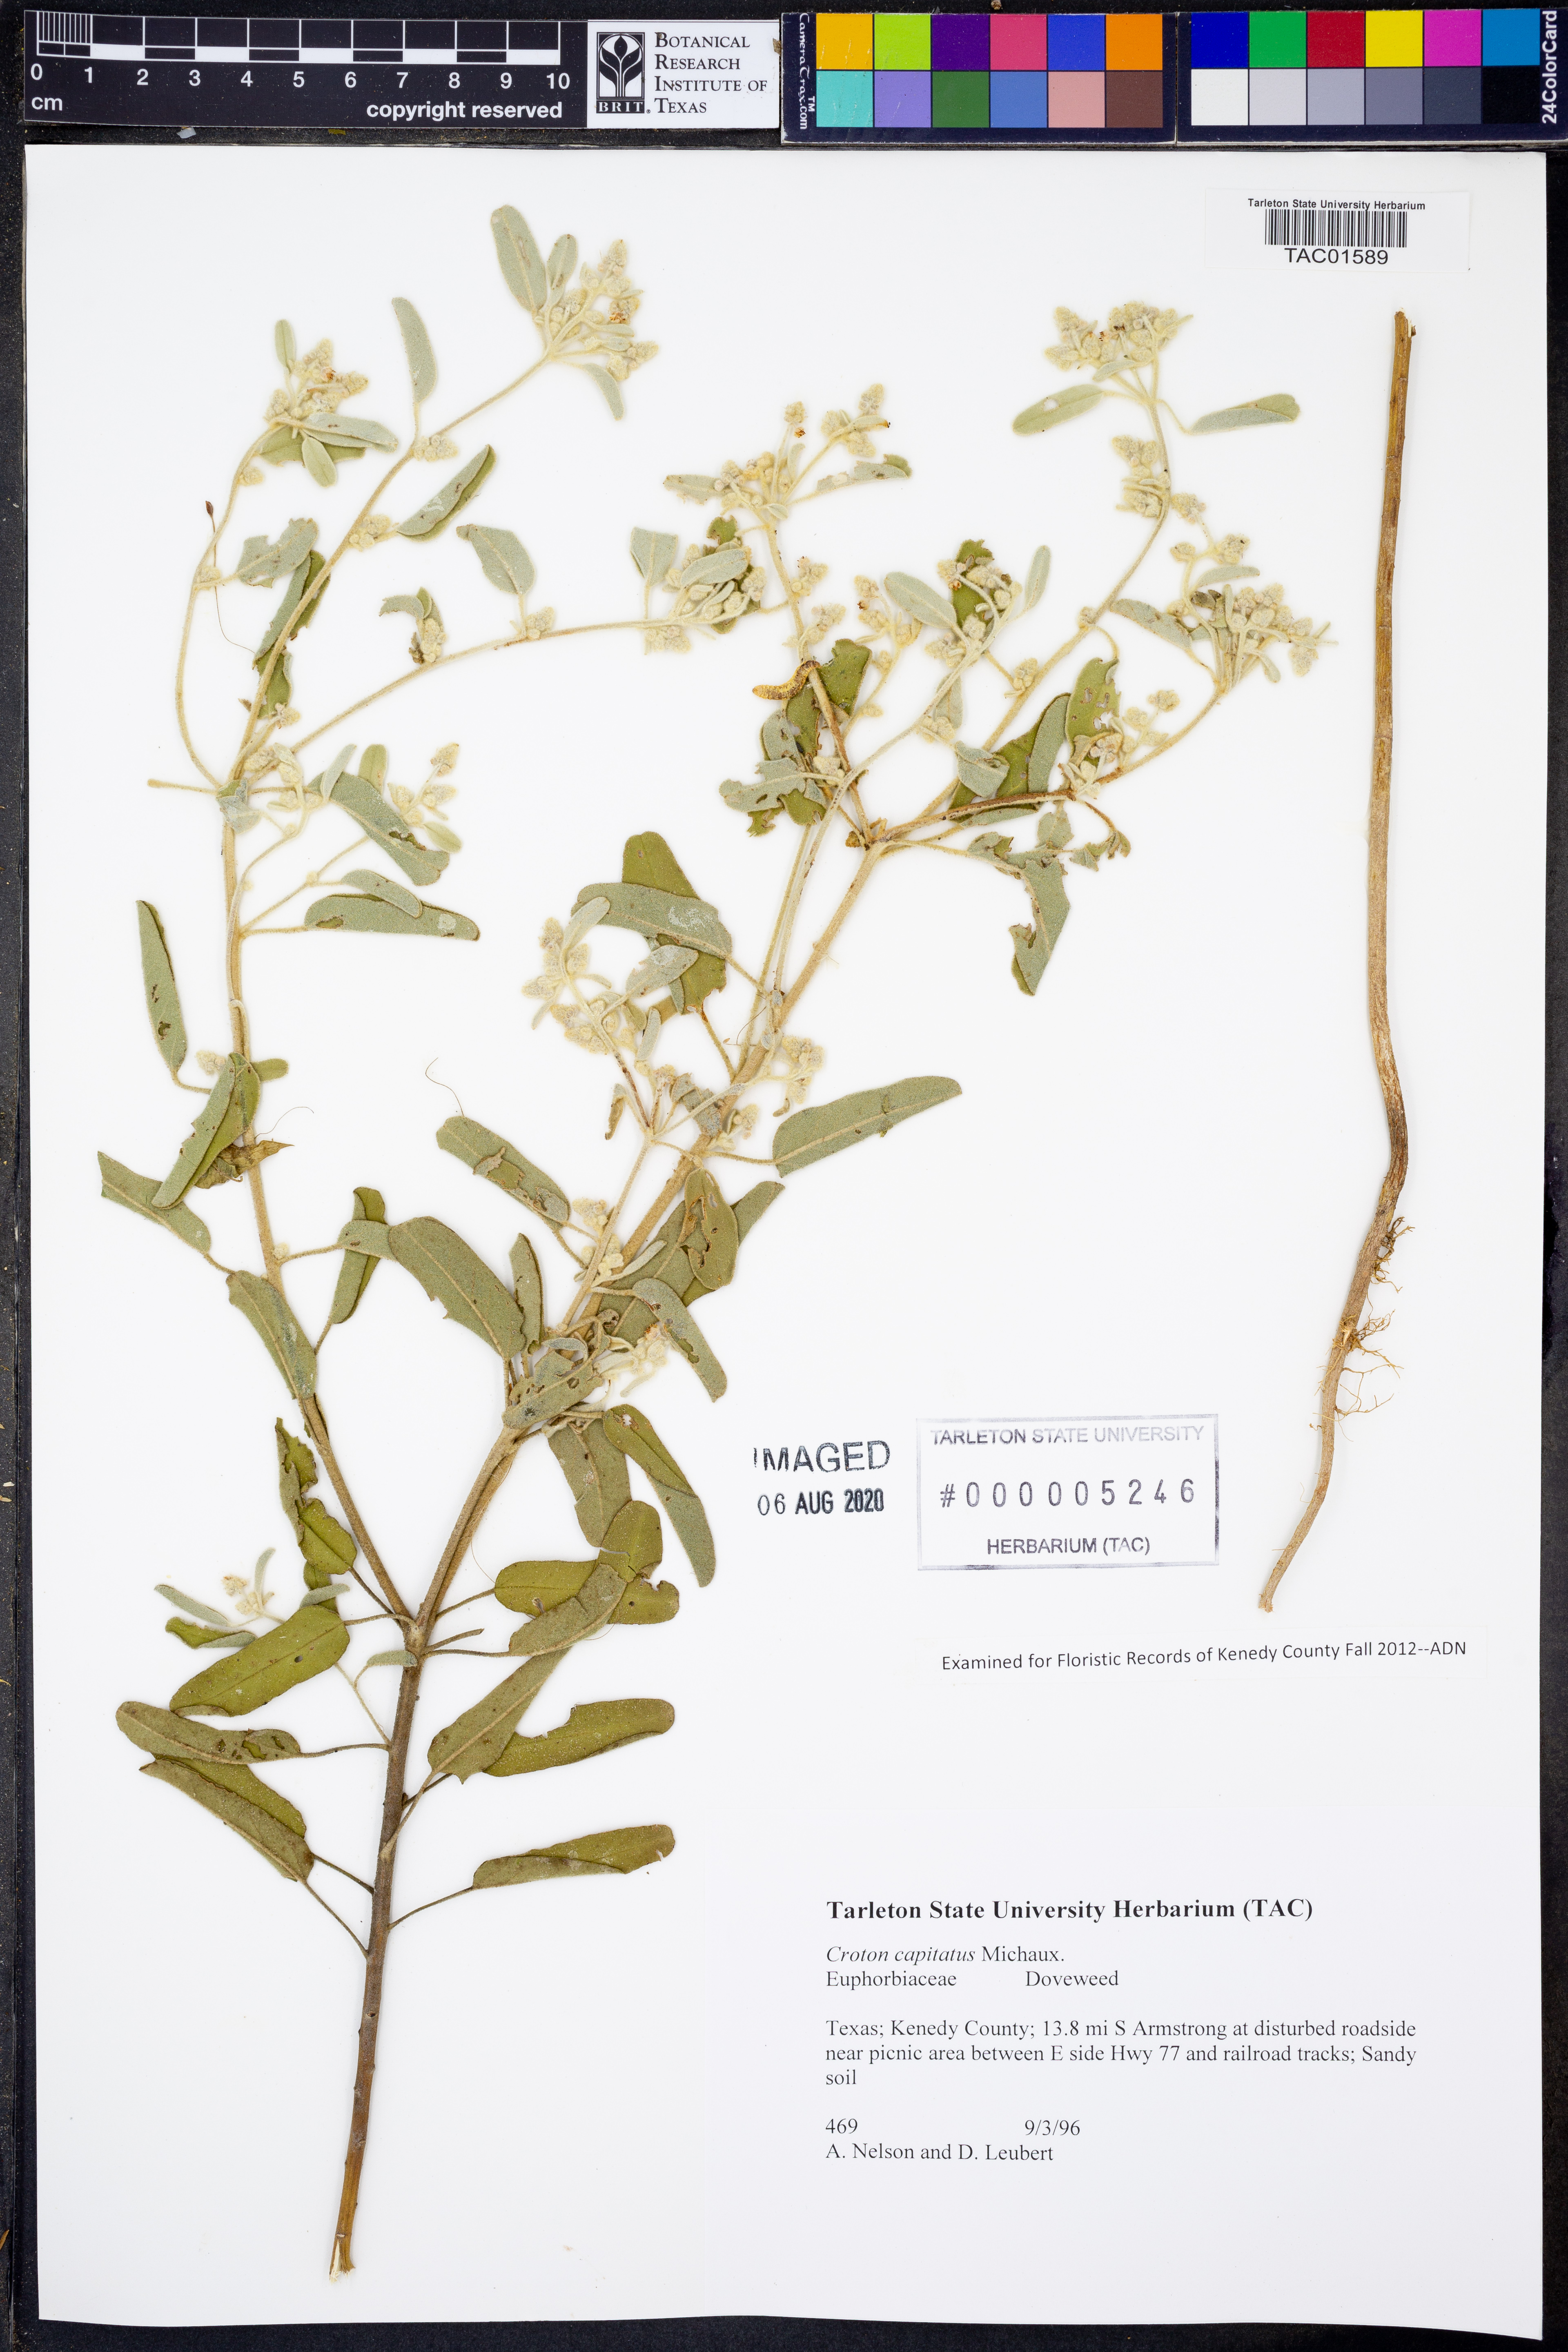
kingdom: Plantae
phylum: Tracheophyta
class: Magnoliopsida
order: Malpighiales
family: Euphorbiaceae
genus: Croton
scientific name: Croton capitatus
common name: Woolly croton
